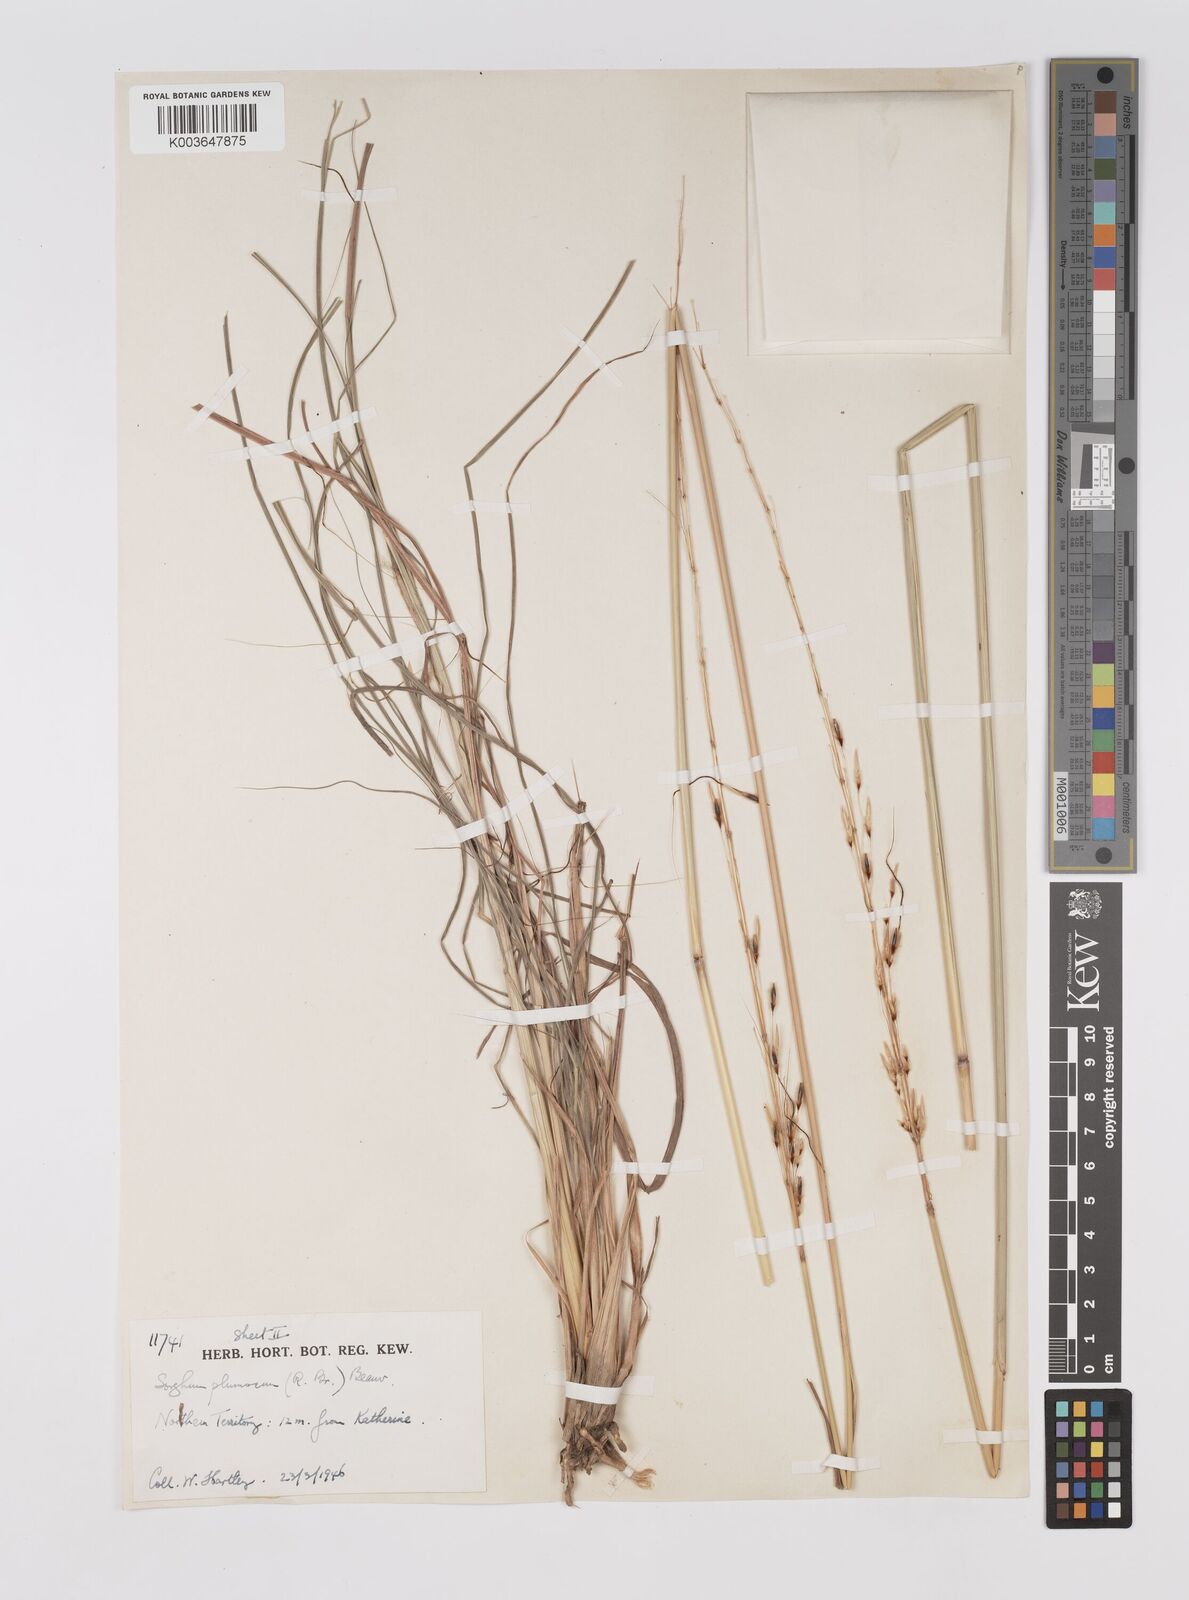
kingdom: Plantae
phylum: Tracheophyta
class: Liliopsida
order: Poales
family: Poaceae
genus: Sarga
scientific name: Sarga plumosa
